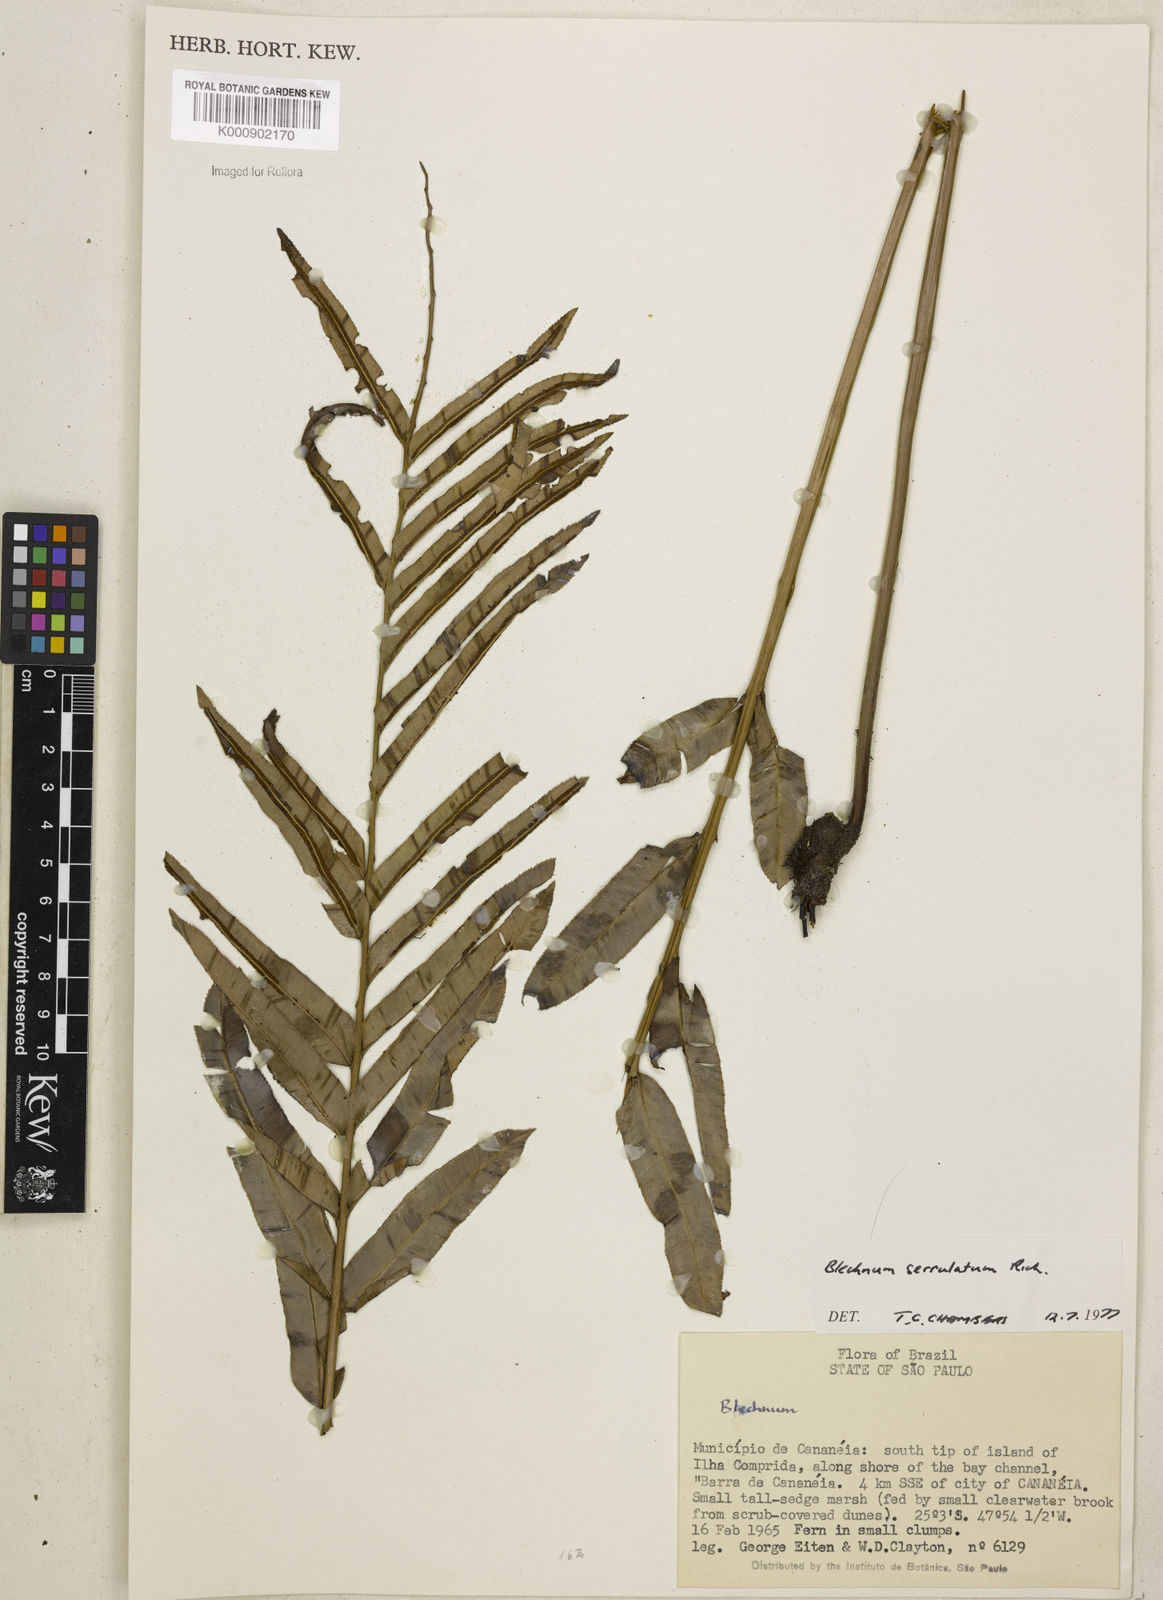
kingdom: Plantae
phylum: Tracheophyta
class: Polypodiopsida
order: Polypodiales
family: Blechnaceae
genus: Telmatoblechnum
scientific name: Telmatoblechnum serrulatum
